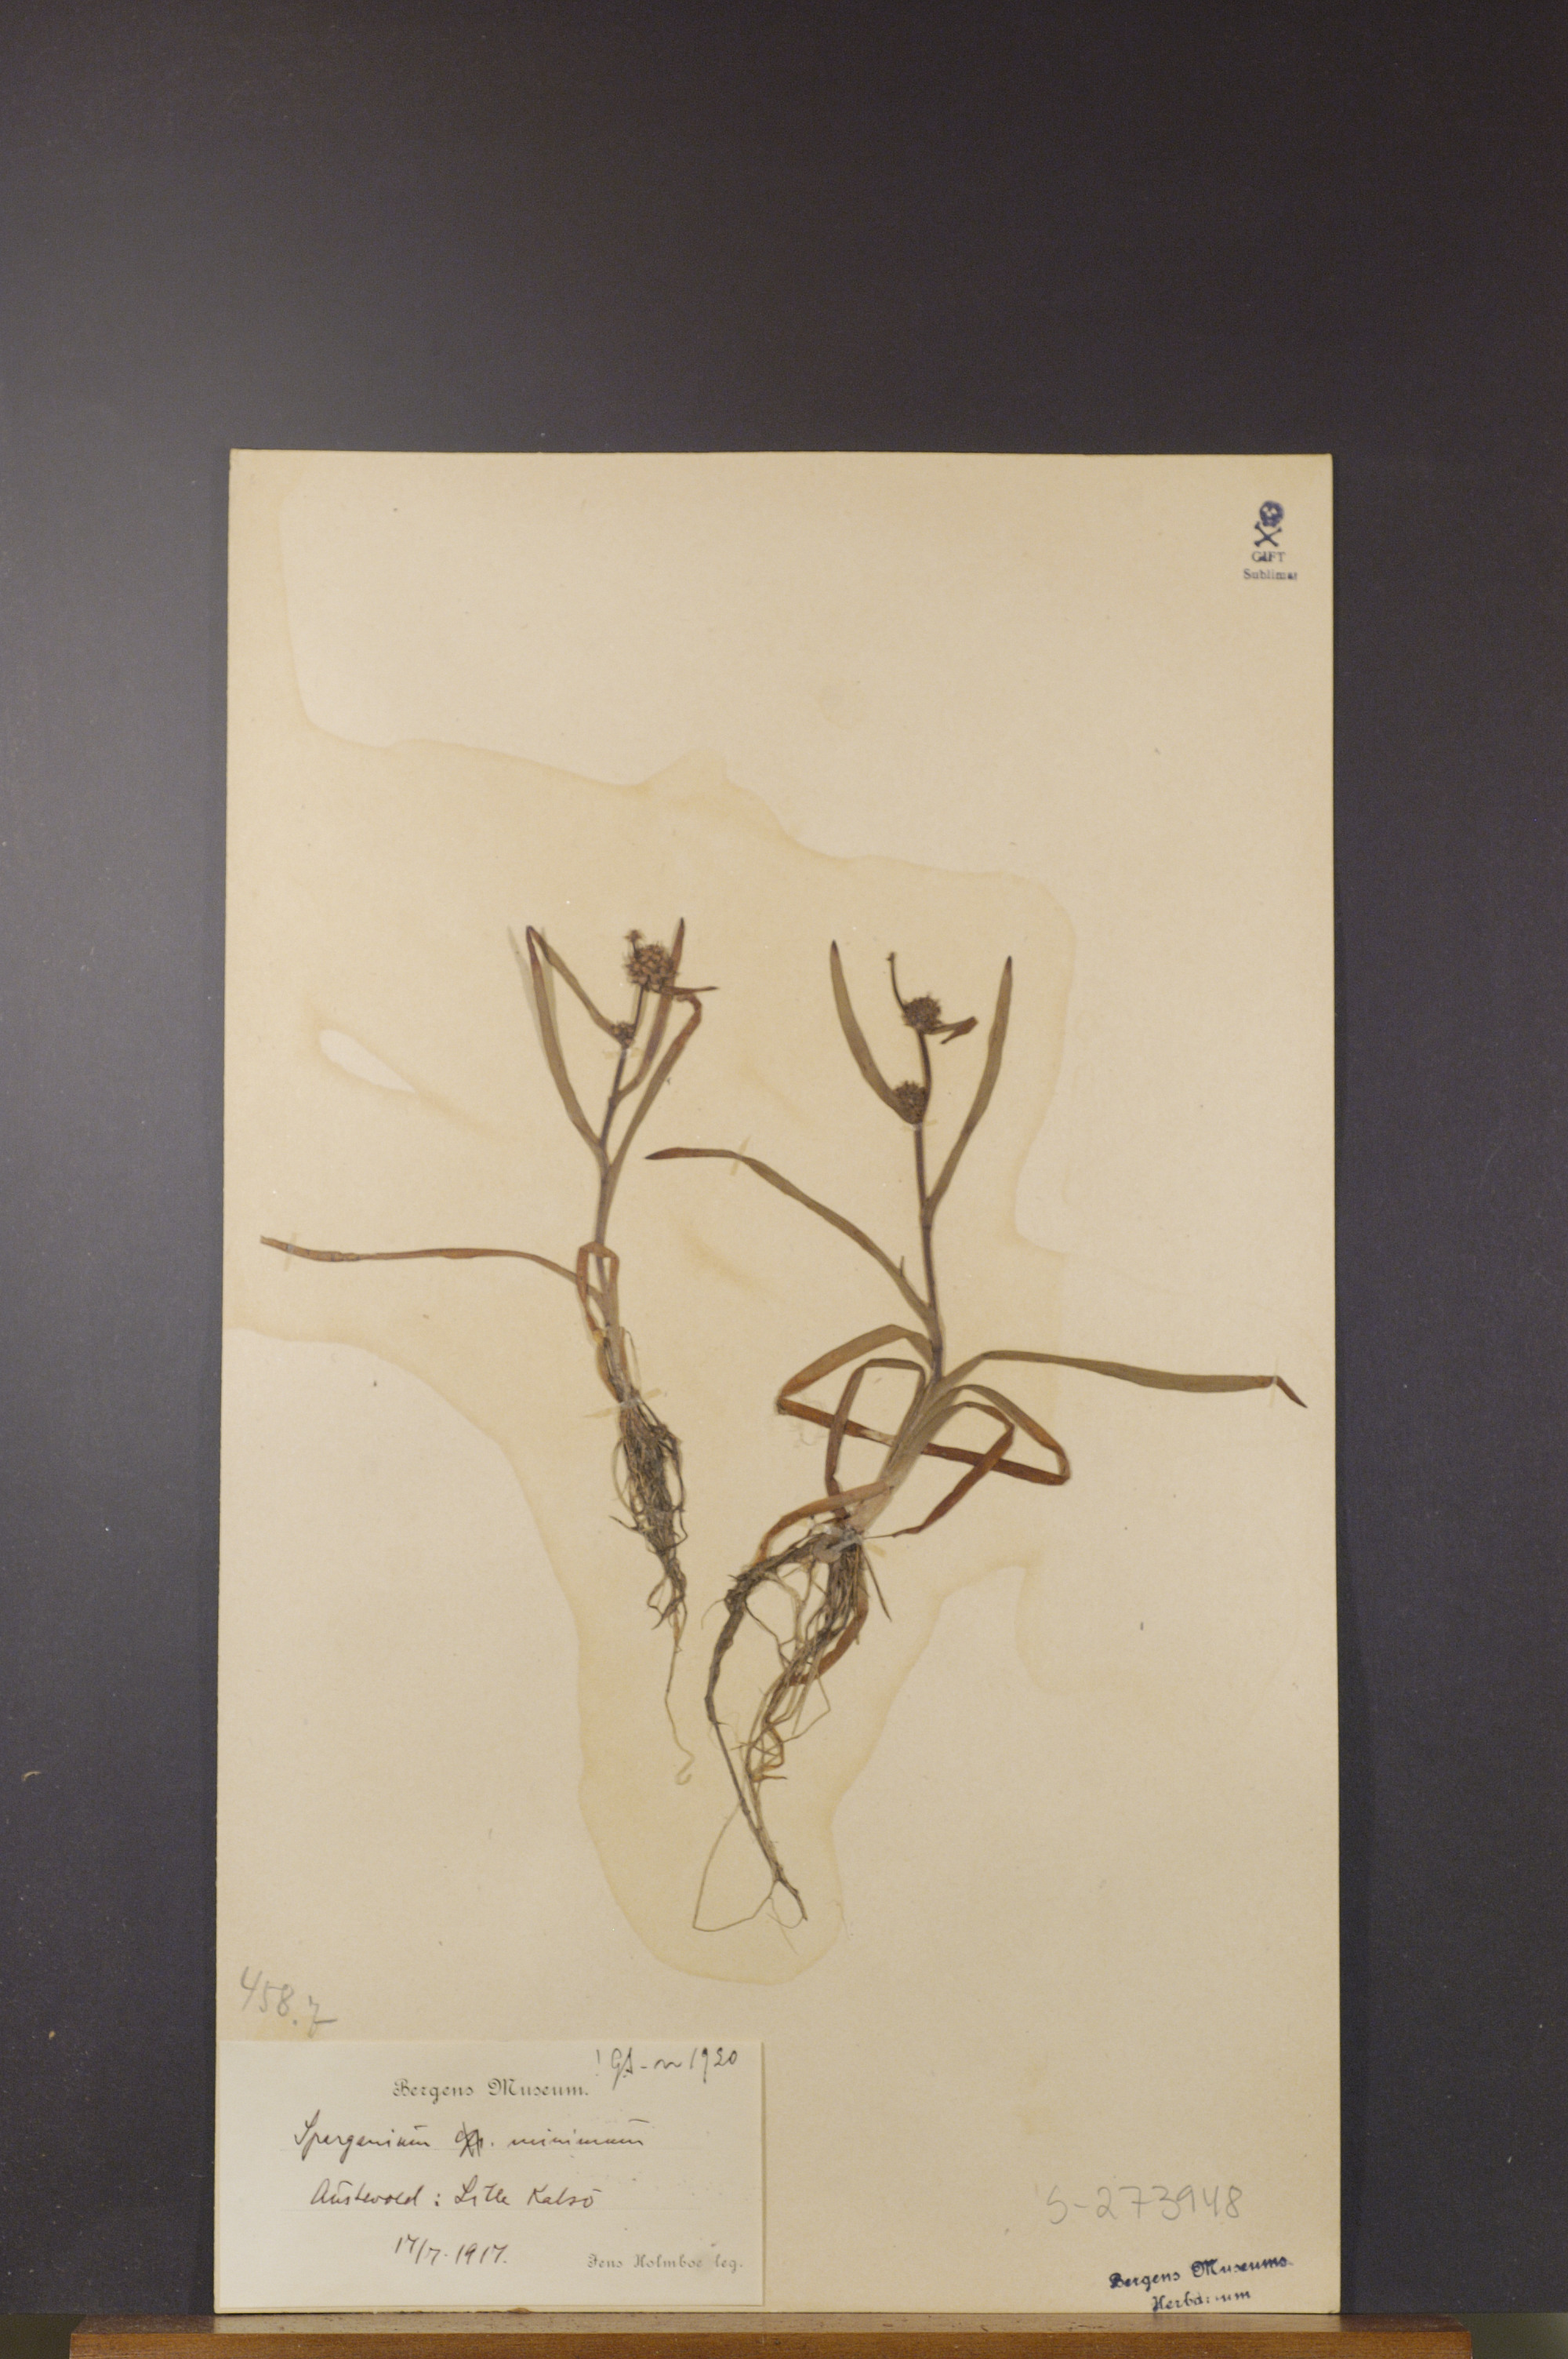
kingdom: Plantae
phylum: Tracheophyta
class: Liliopsida
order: Poales
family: Typhaceae
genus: Sparganium
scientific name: Sparganium natans
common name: Least bur-reed
